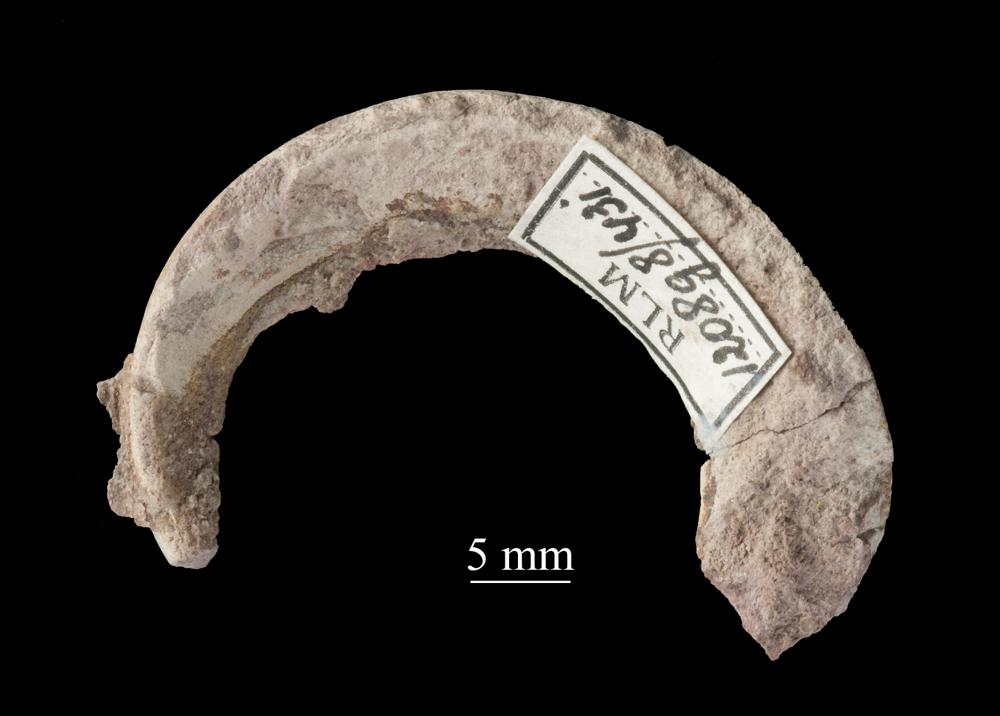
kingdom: Animalia
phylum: Mollusca
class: Gastropoda
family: Lesueurillidae
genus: Eccyliopterus
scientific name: Eccyliopterus regularis
